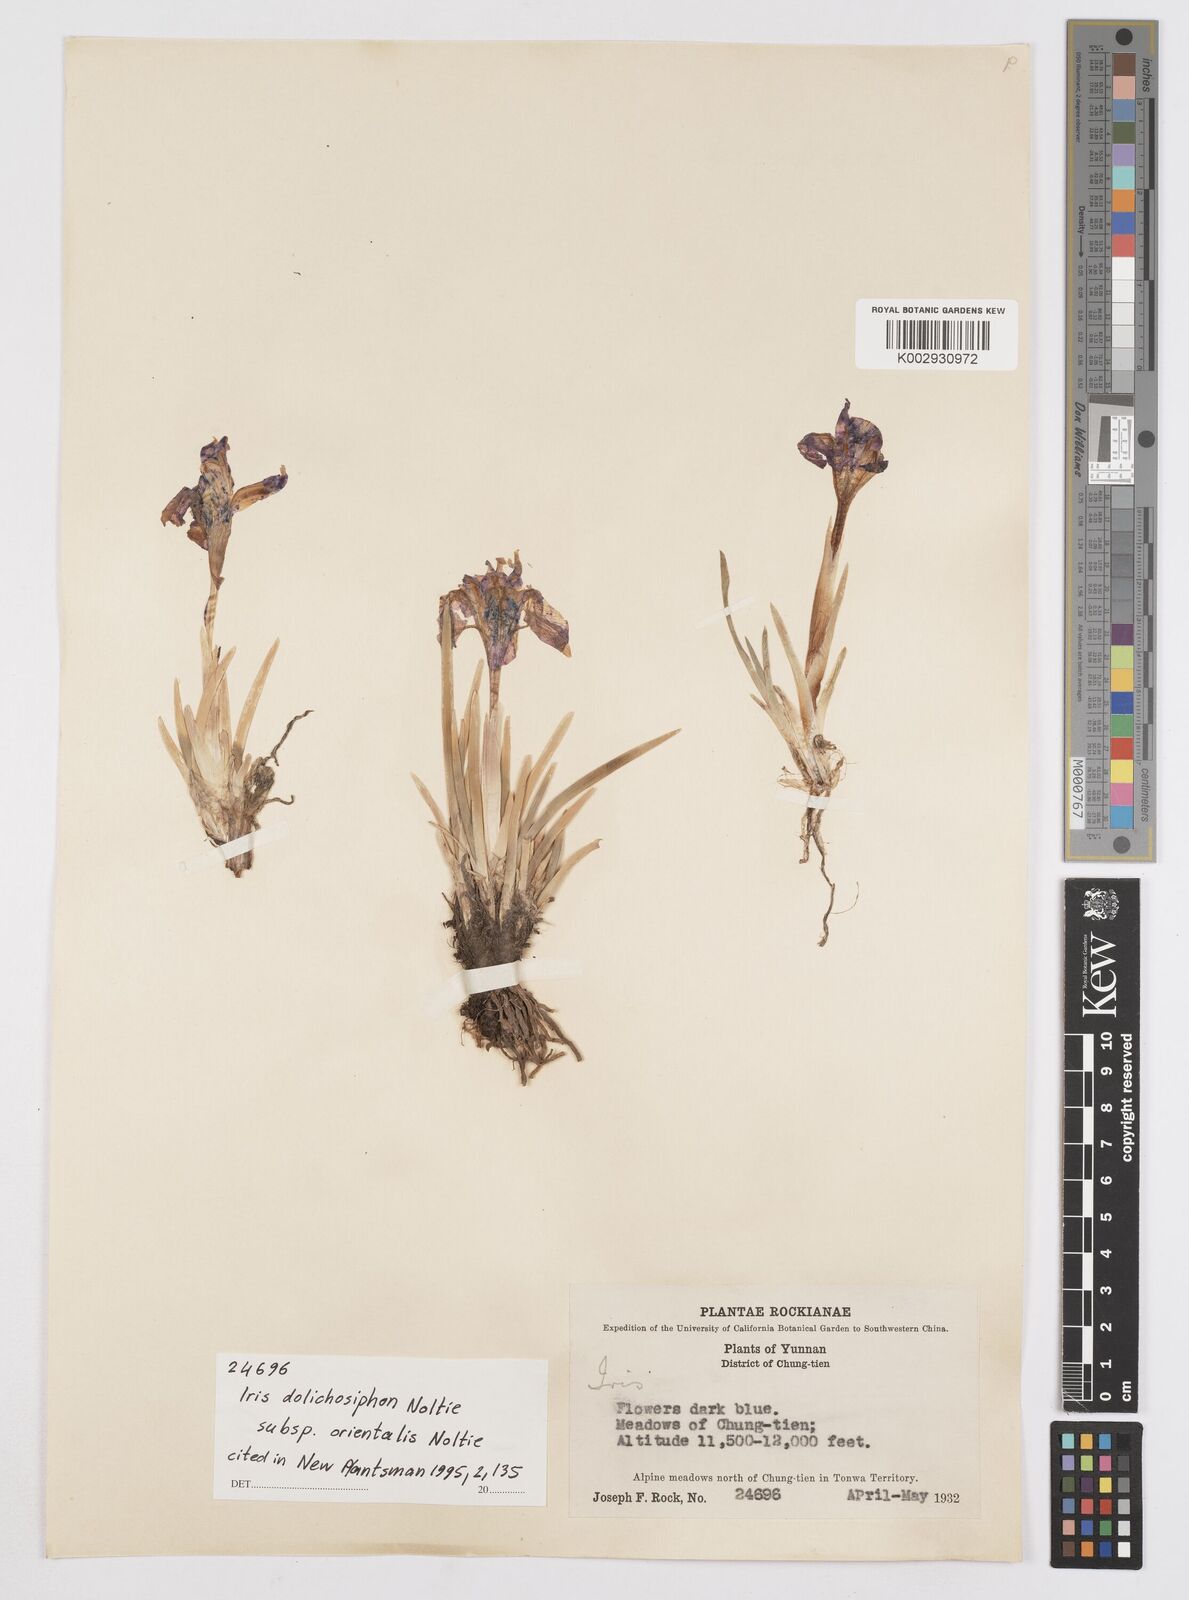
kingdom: Plantae
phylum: Tracheophyta
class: Liliopsida
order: Asparagales
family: Iridaceae
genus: Iris
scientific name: Iris dolichosiphon
